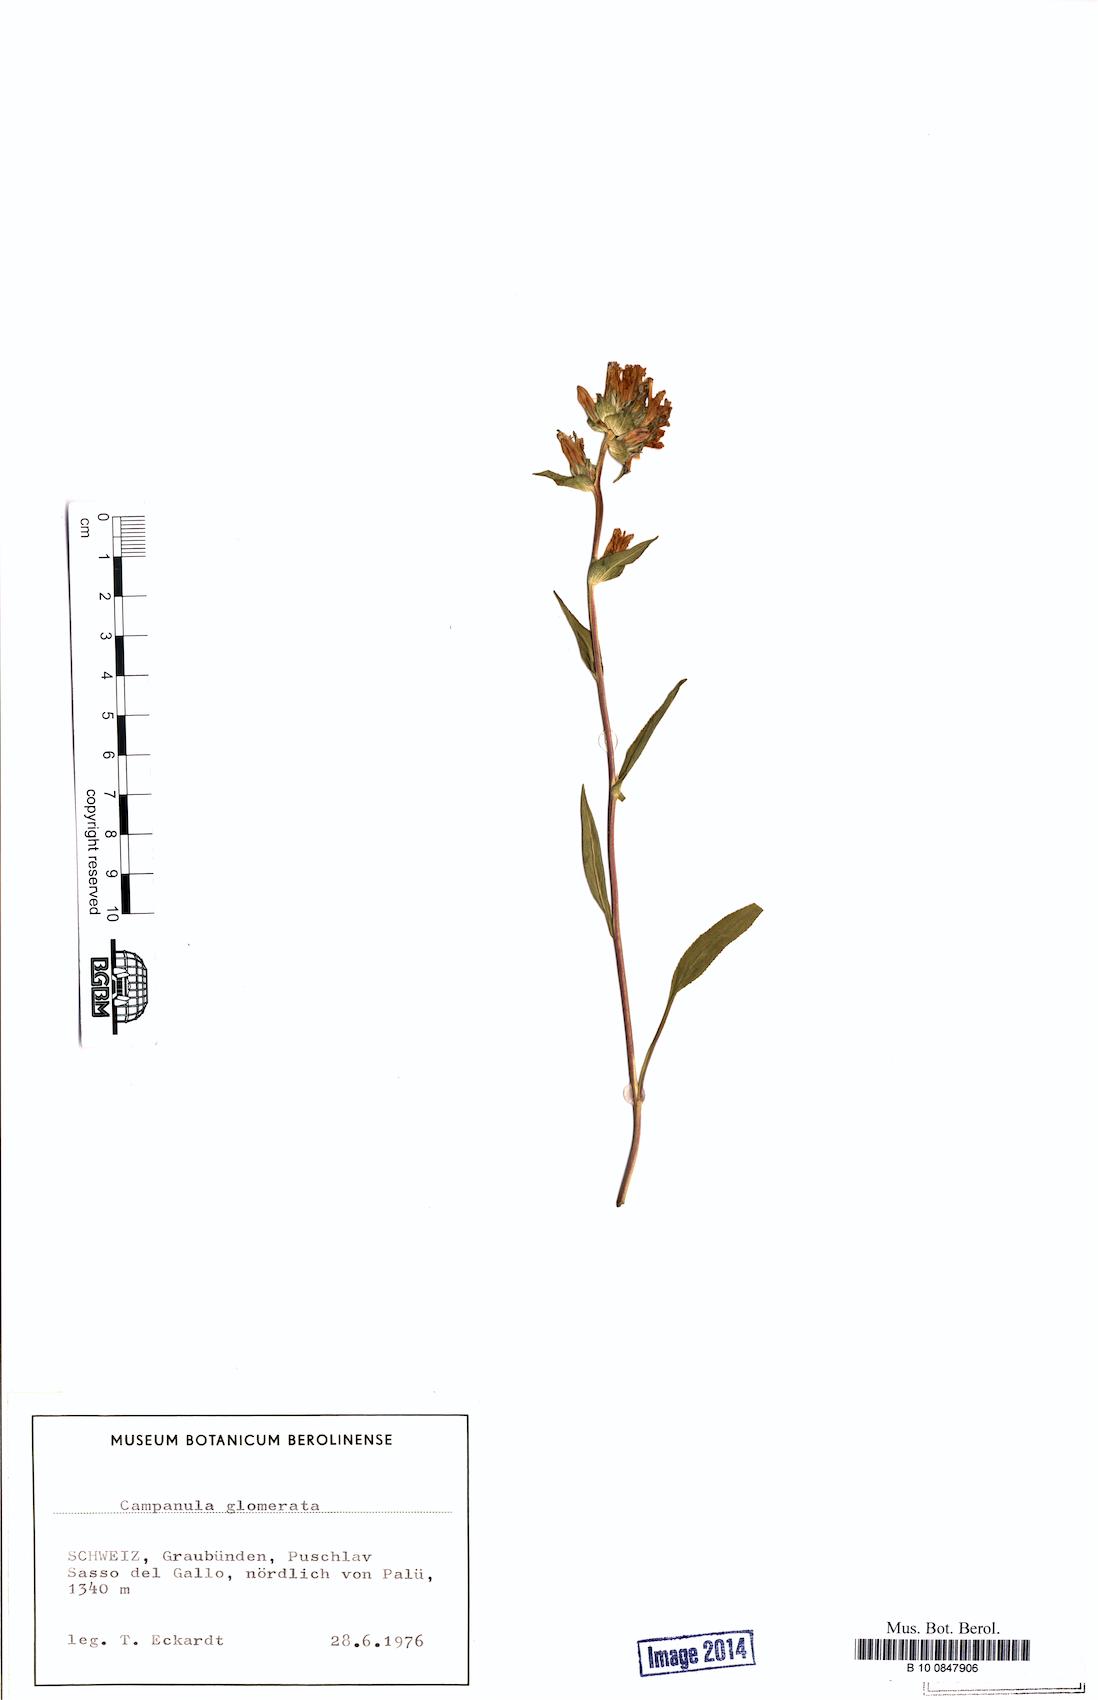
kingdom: Plantae
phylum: Tracheophyta
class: Magnoliopsida
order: Asterales
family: Campanulaceae
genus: Campanula
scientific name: Campanula glomerata
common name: Clustered bellflower
